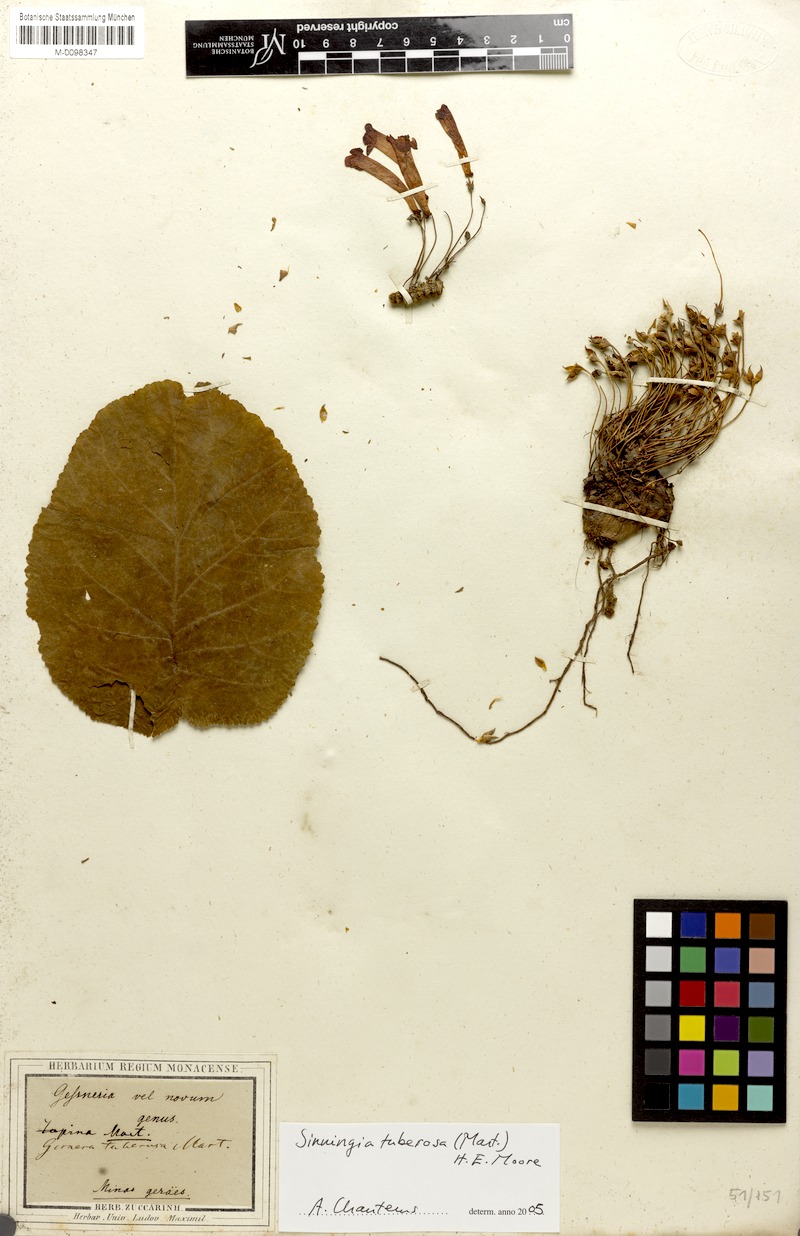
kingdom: Plantae
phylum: Tracheophyta
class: Magnoliopsida
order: Lamiales
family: Gesneriaceae
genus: Sinningia
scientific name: Sinningia tuberosa
